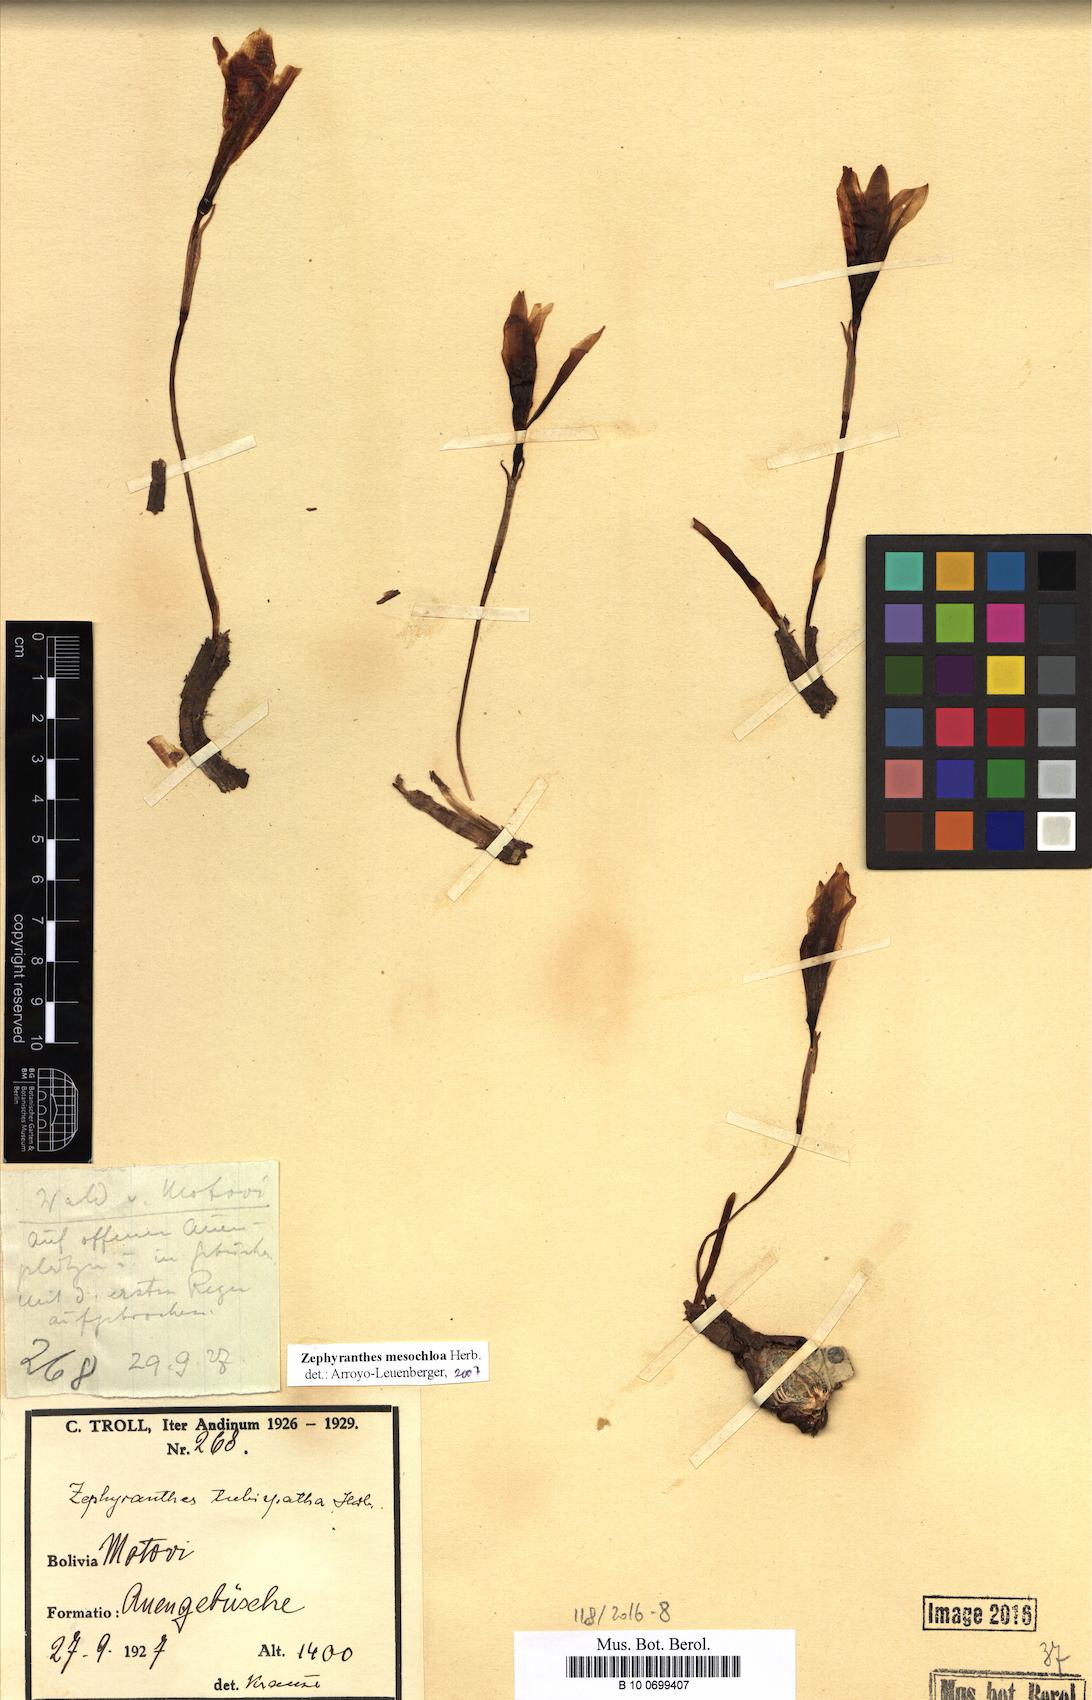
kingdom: Plantae
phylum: Tracheophyta
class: Liliopsida
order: Asparagales
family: Amaryllidaceae
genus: Zephyranthes
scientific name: Zephyranthes mesochloa
